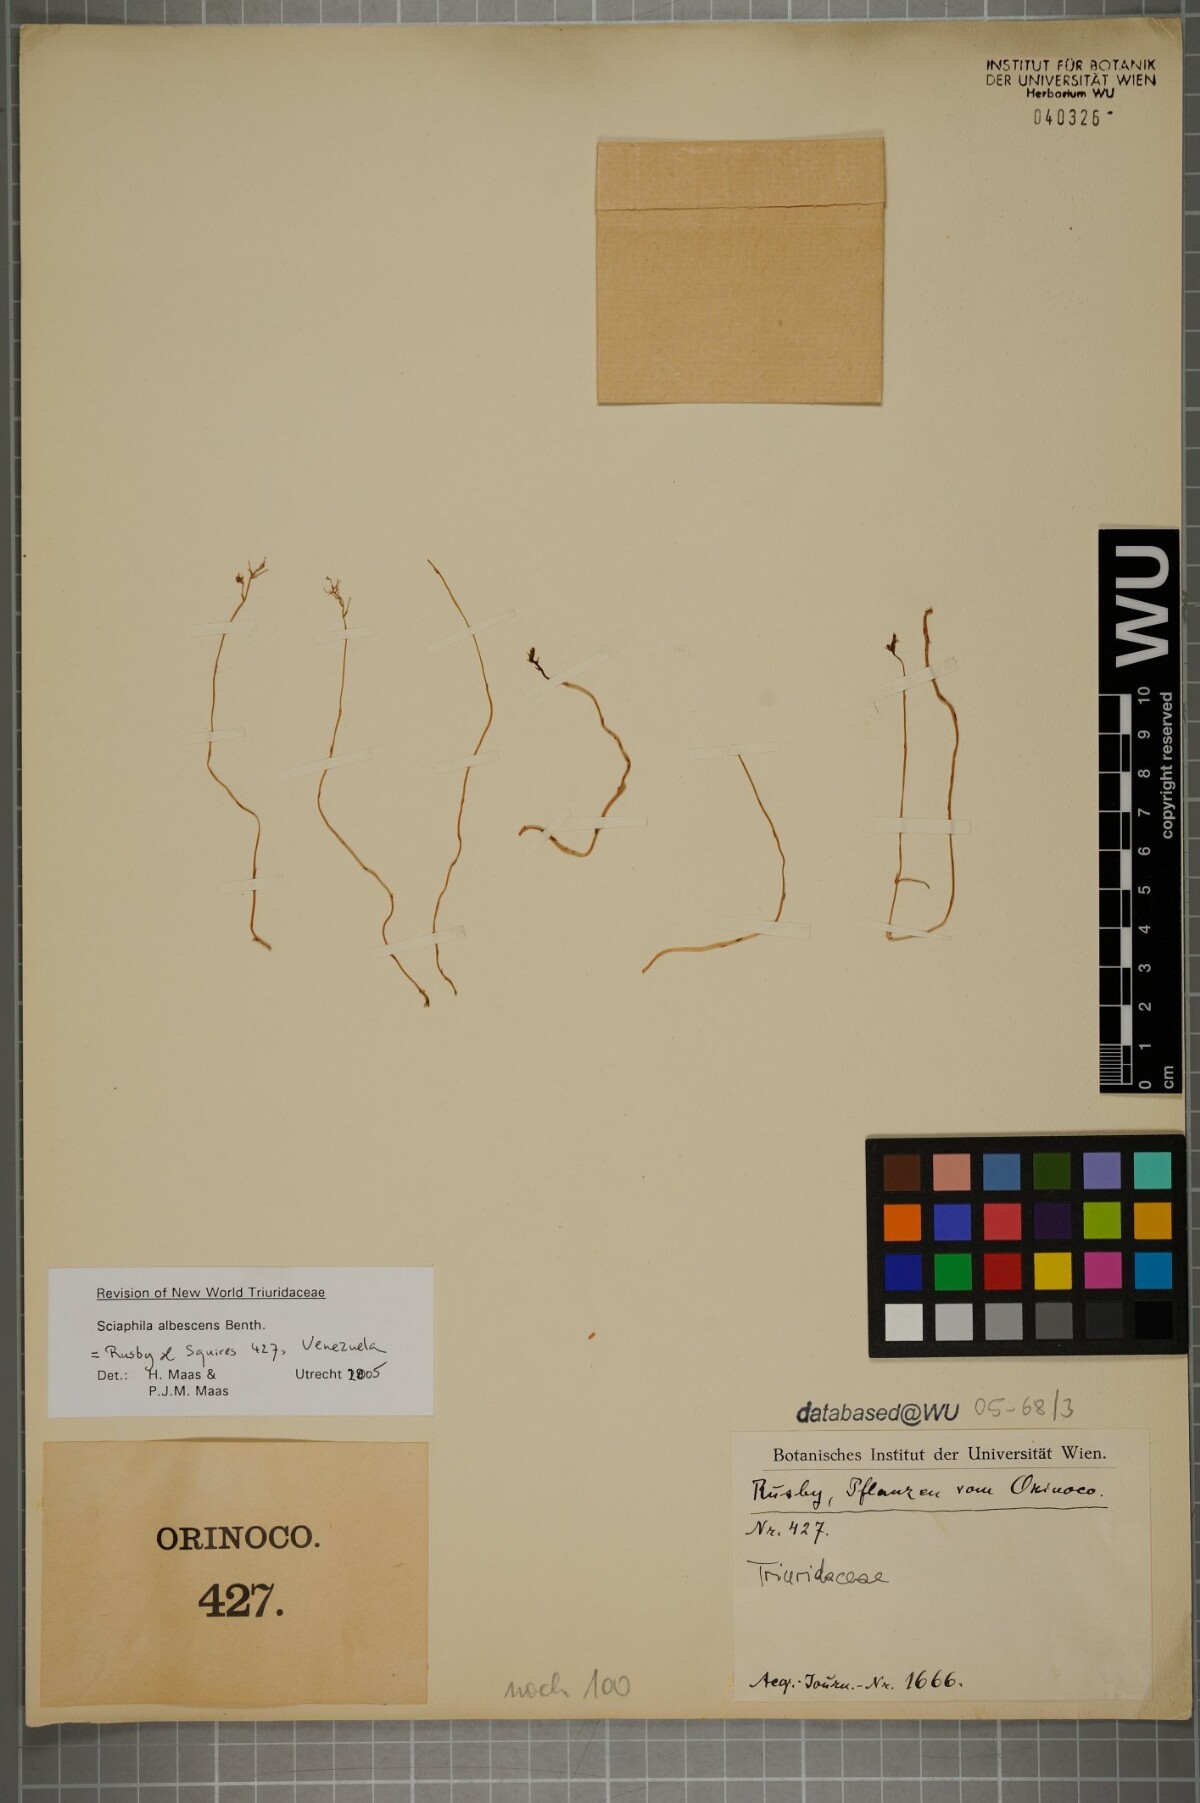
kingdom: Plantae
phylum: Tracheophyta
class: Liliopsida
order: Pandanales
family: Triuridaceae
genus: Sciaphila
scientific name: Sciaphila albescens
